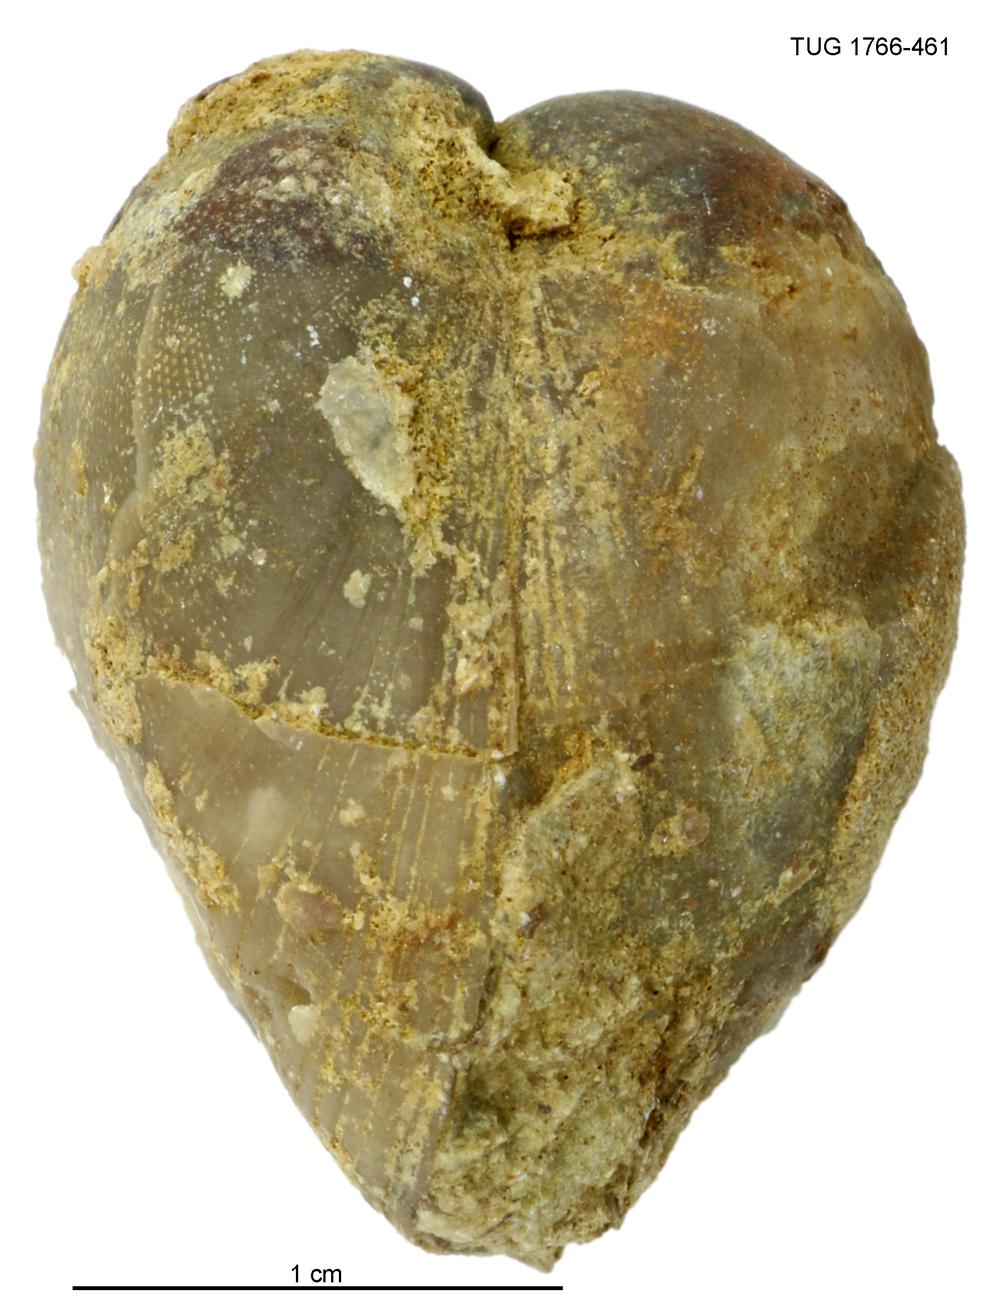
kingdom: Animalia
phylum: Brachiopoda
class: Rhynchonellata
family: Porambonitidae
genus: Porambonites
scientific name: Porambonites
